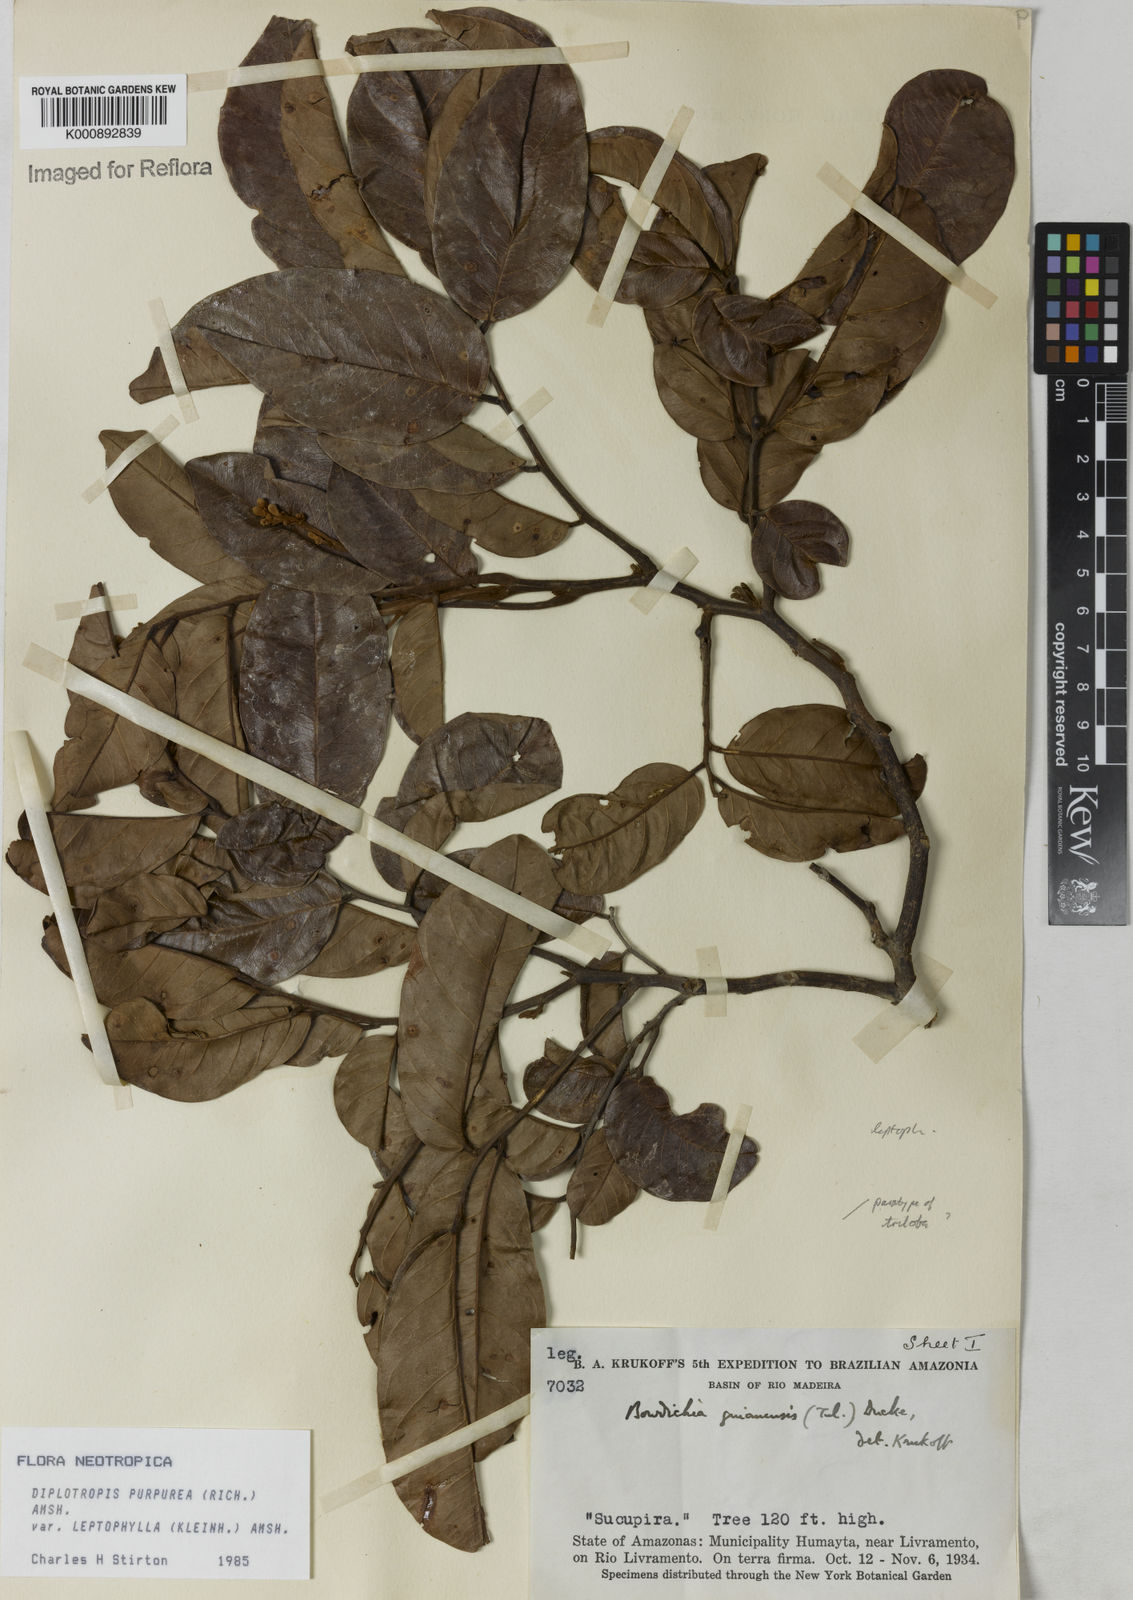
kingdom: Plantae
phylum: Tracheophyta
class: Magnoliopsida
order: Fabales
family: Fabaceae
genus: Diplotropis
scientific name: Diplotropis purpurea
